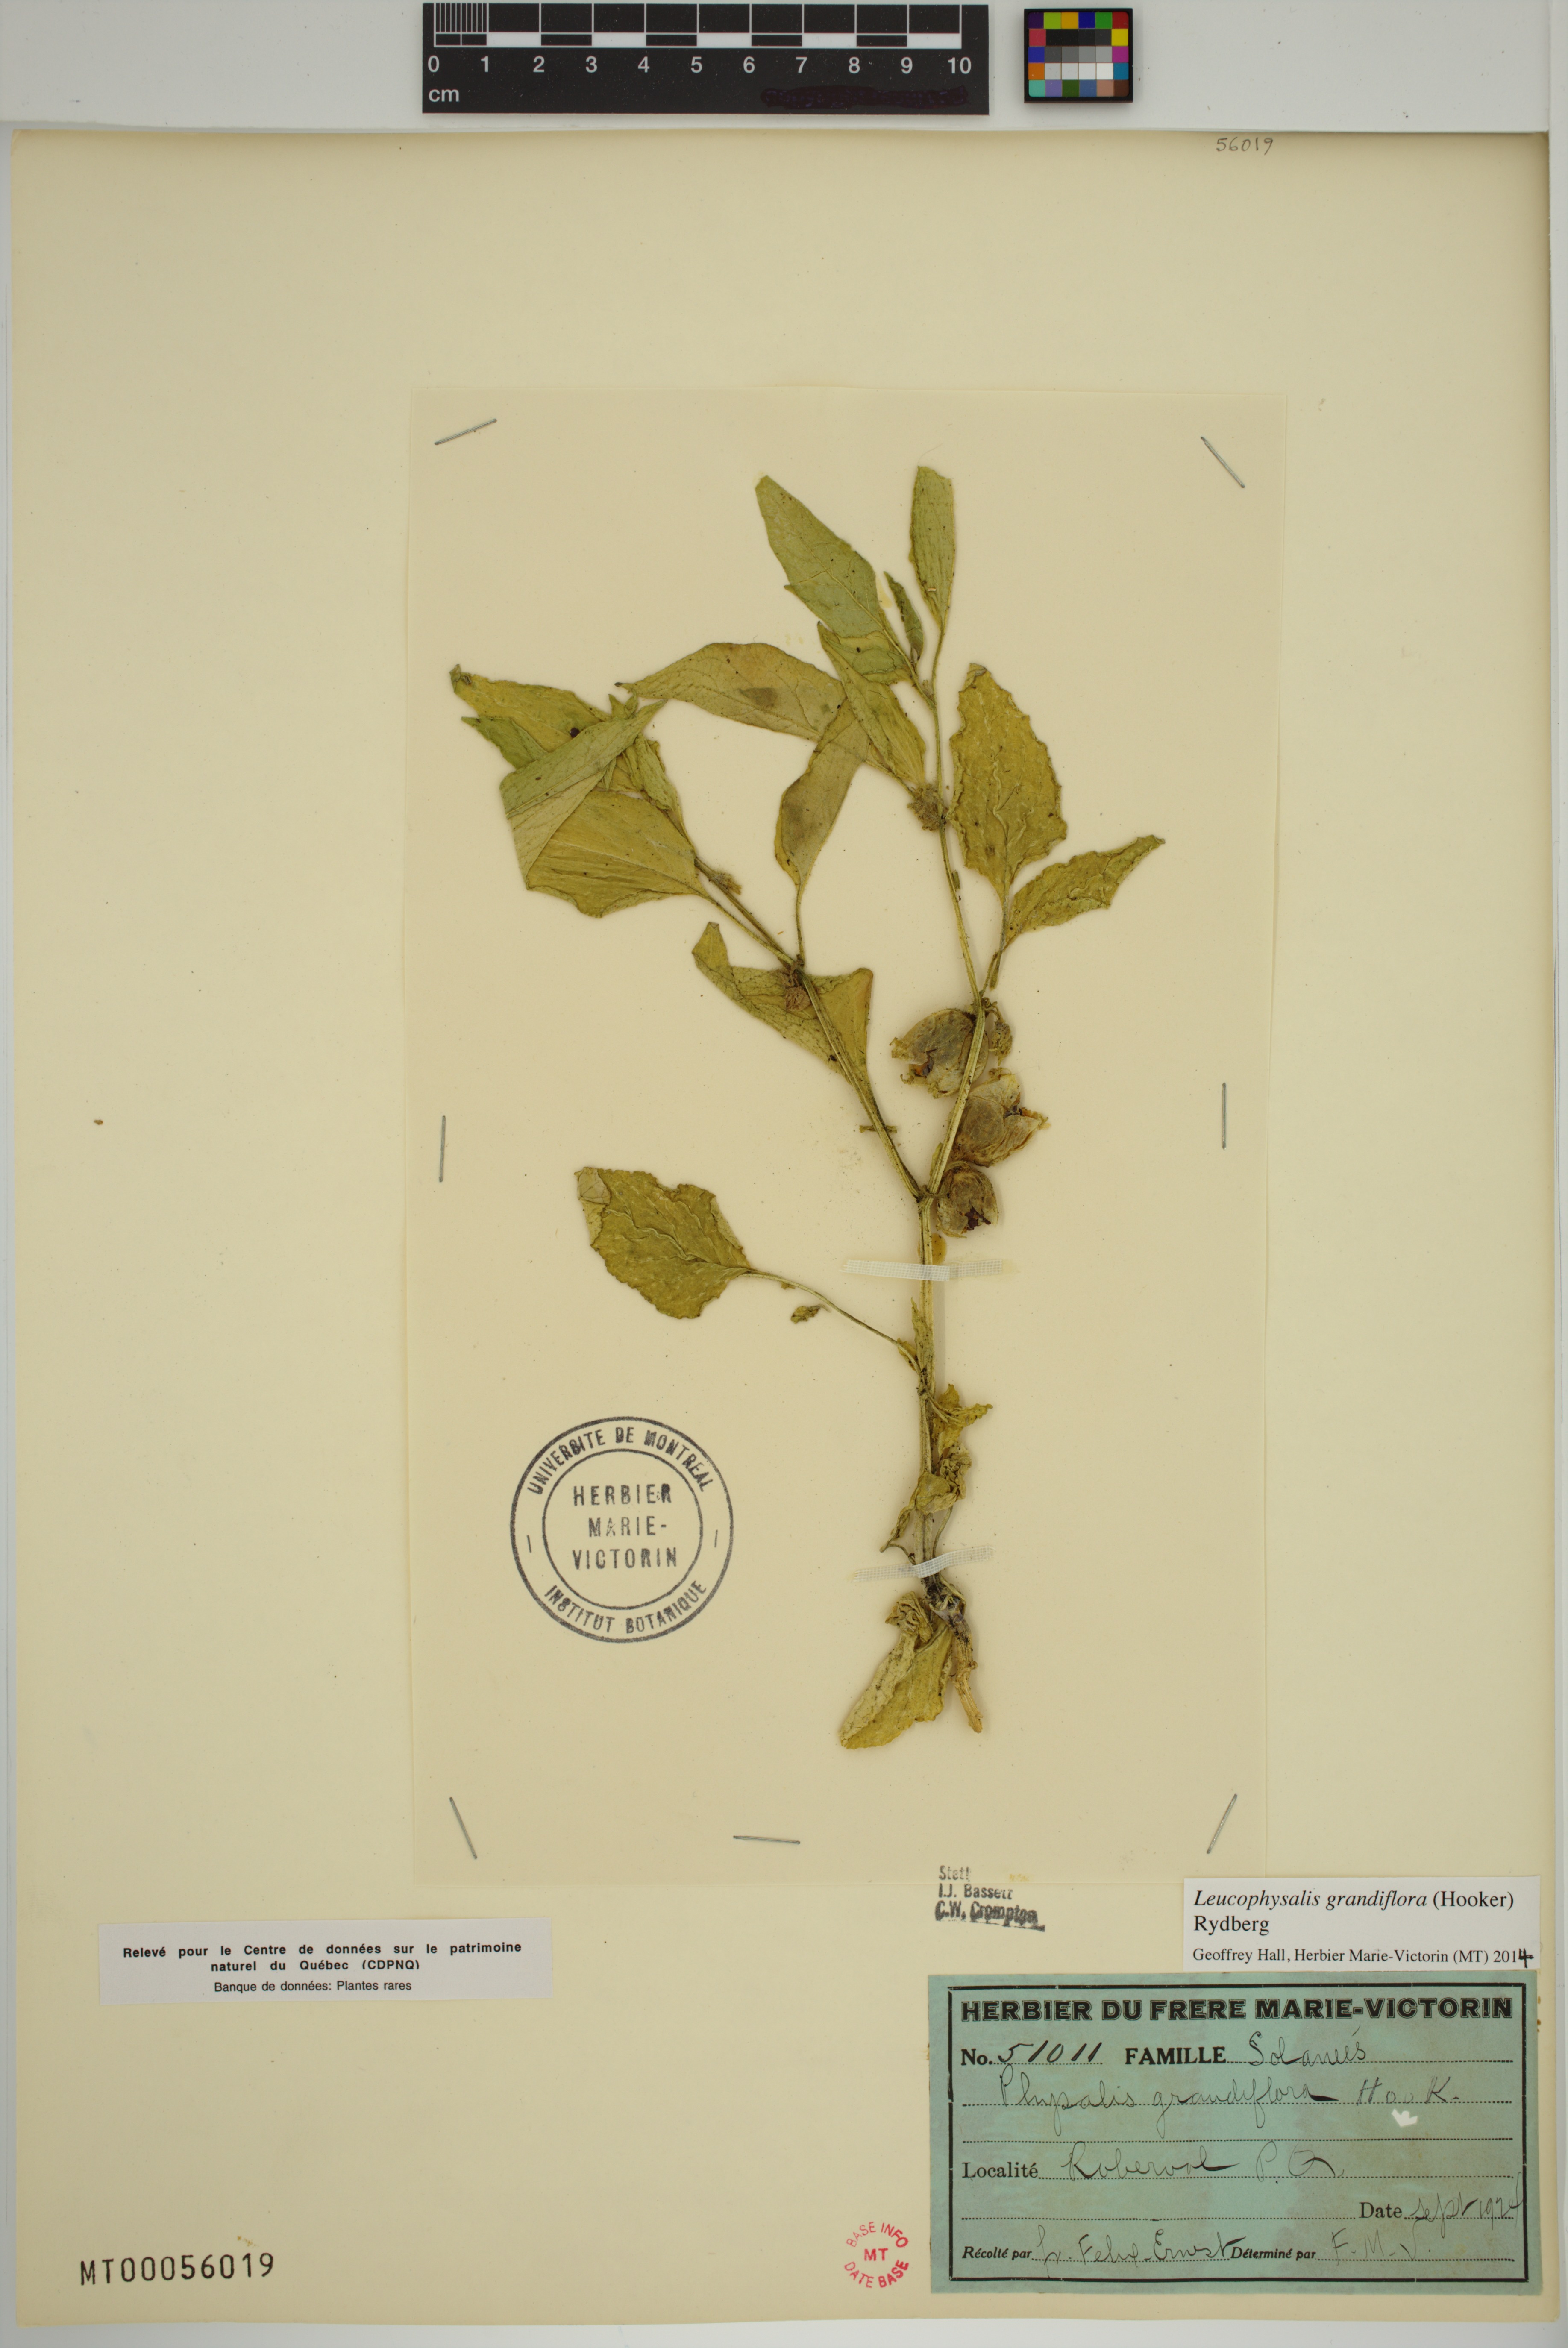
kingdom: Plantae
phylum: Tracheophyta
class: Magnoliopsida
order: Solanales
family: Solanaceae
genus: Leucophysalis
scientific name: Leucophysalis grandiflora
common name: Large false ground-cherry
